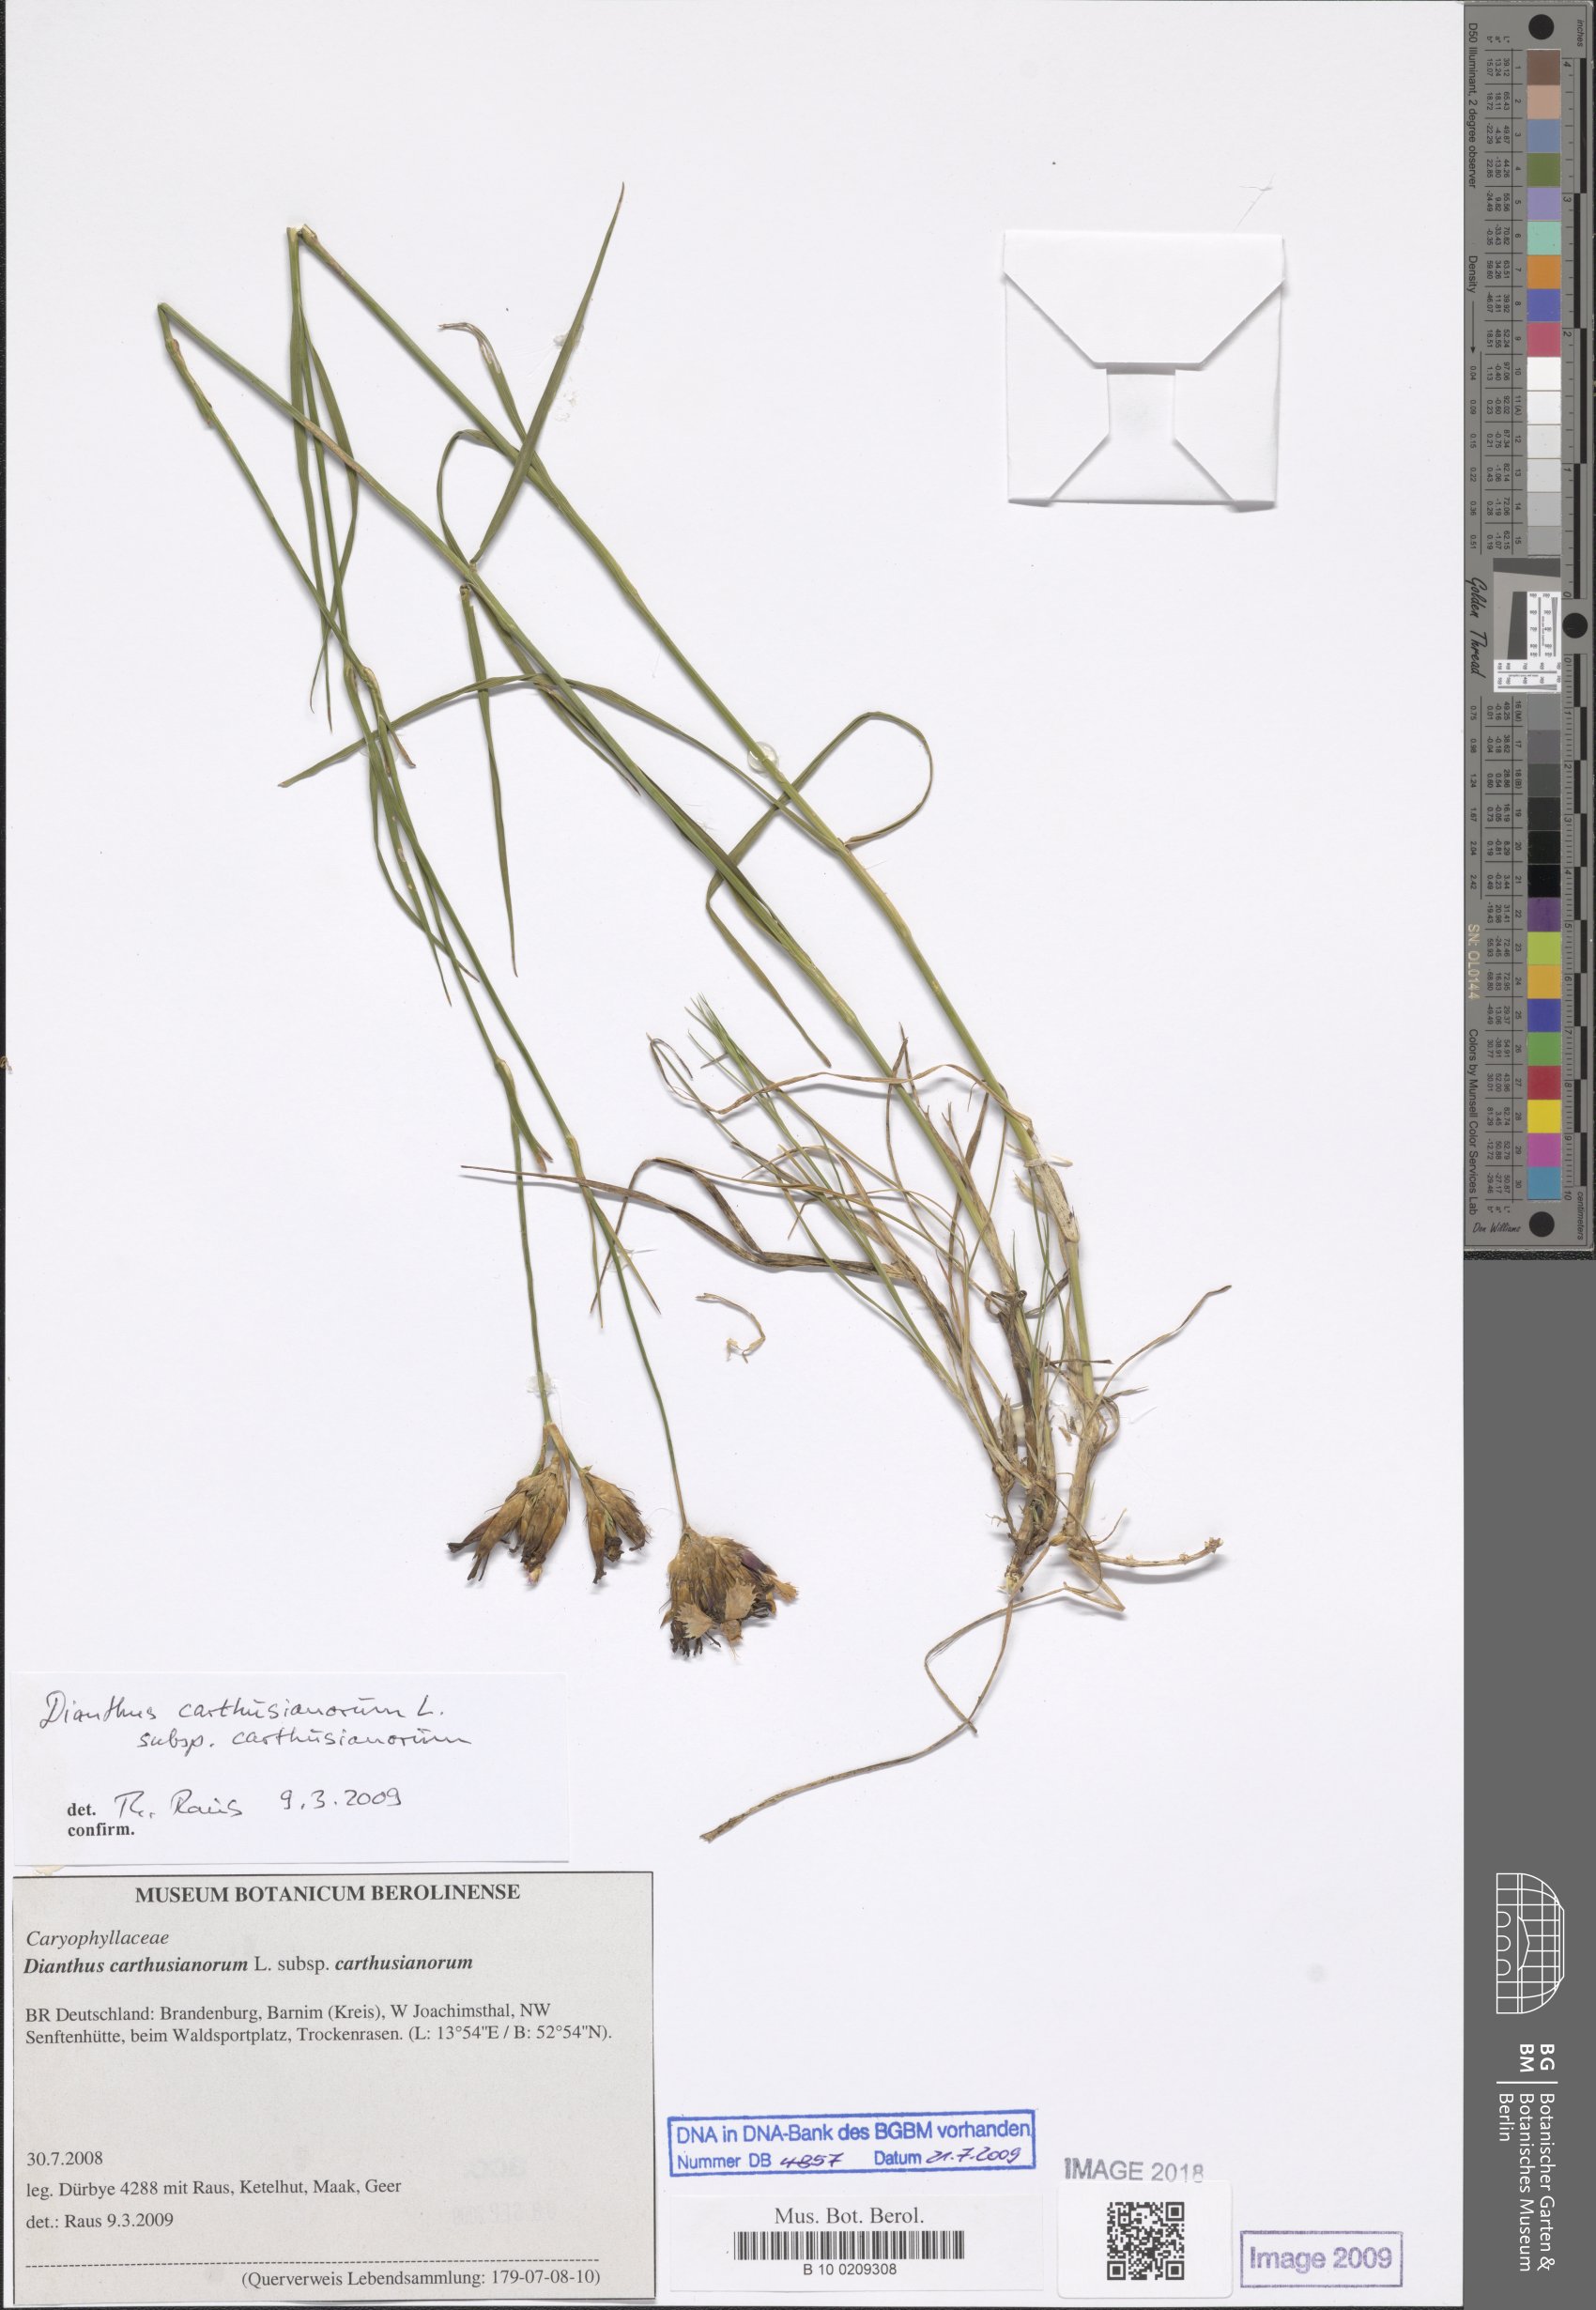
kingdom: Plantae
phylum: Tracheophyta
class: Magnoliopsida
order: Caryophyllales
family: Caryophyllaceae
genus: Dianthus
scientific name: Dianthus carthusianorum
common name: Carthusian pink
